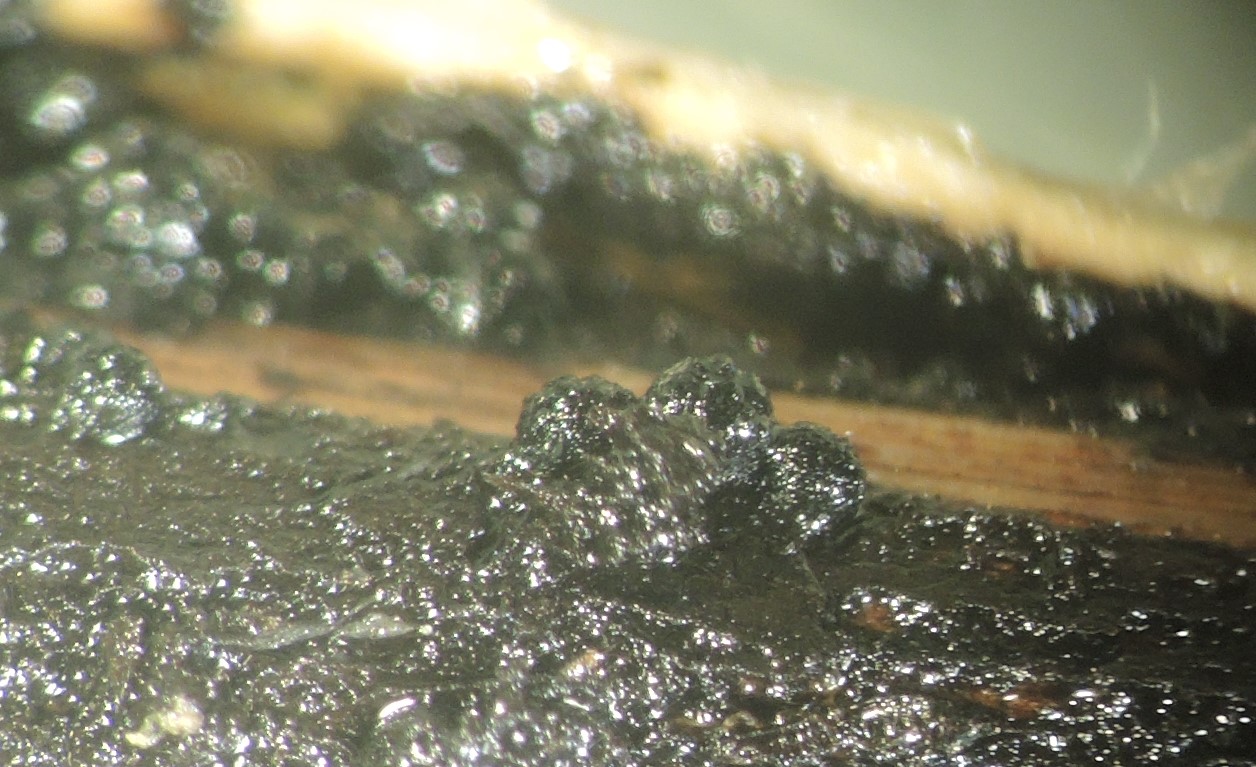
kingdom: Fungi
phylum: Ascomycota
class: Dothideomycetes
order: Pleosporales
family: Cucurbitariaceae
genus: Cucurbitaria
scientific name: Cucurbitaria
